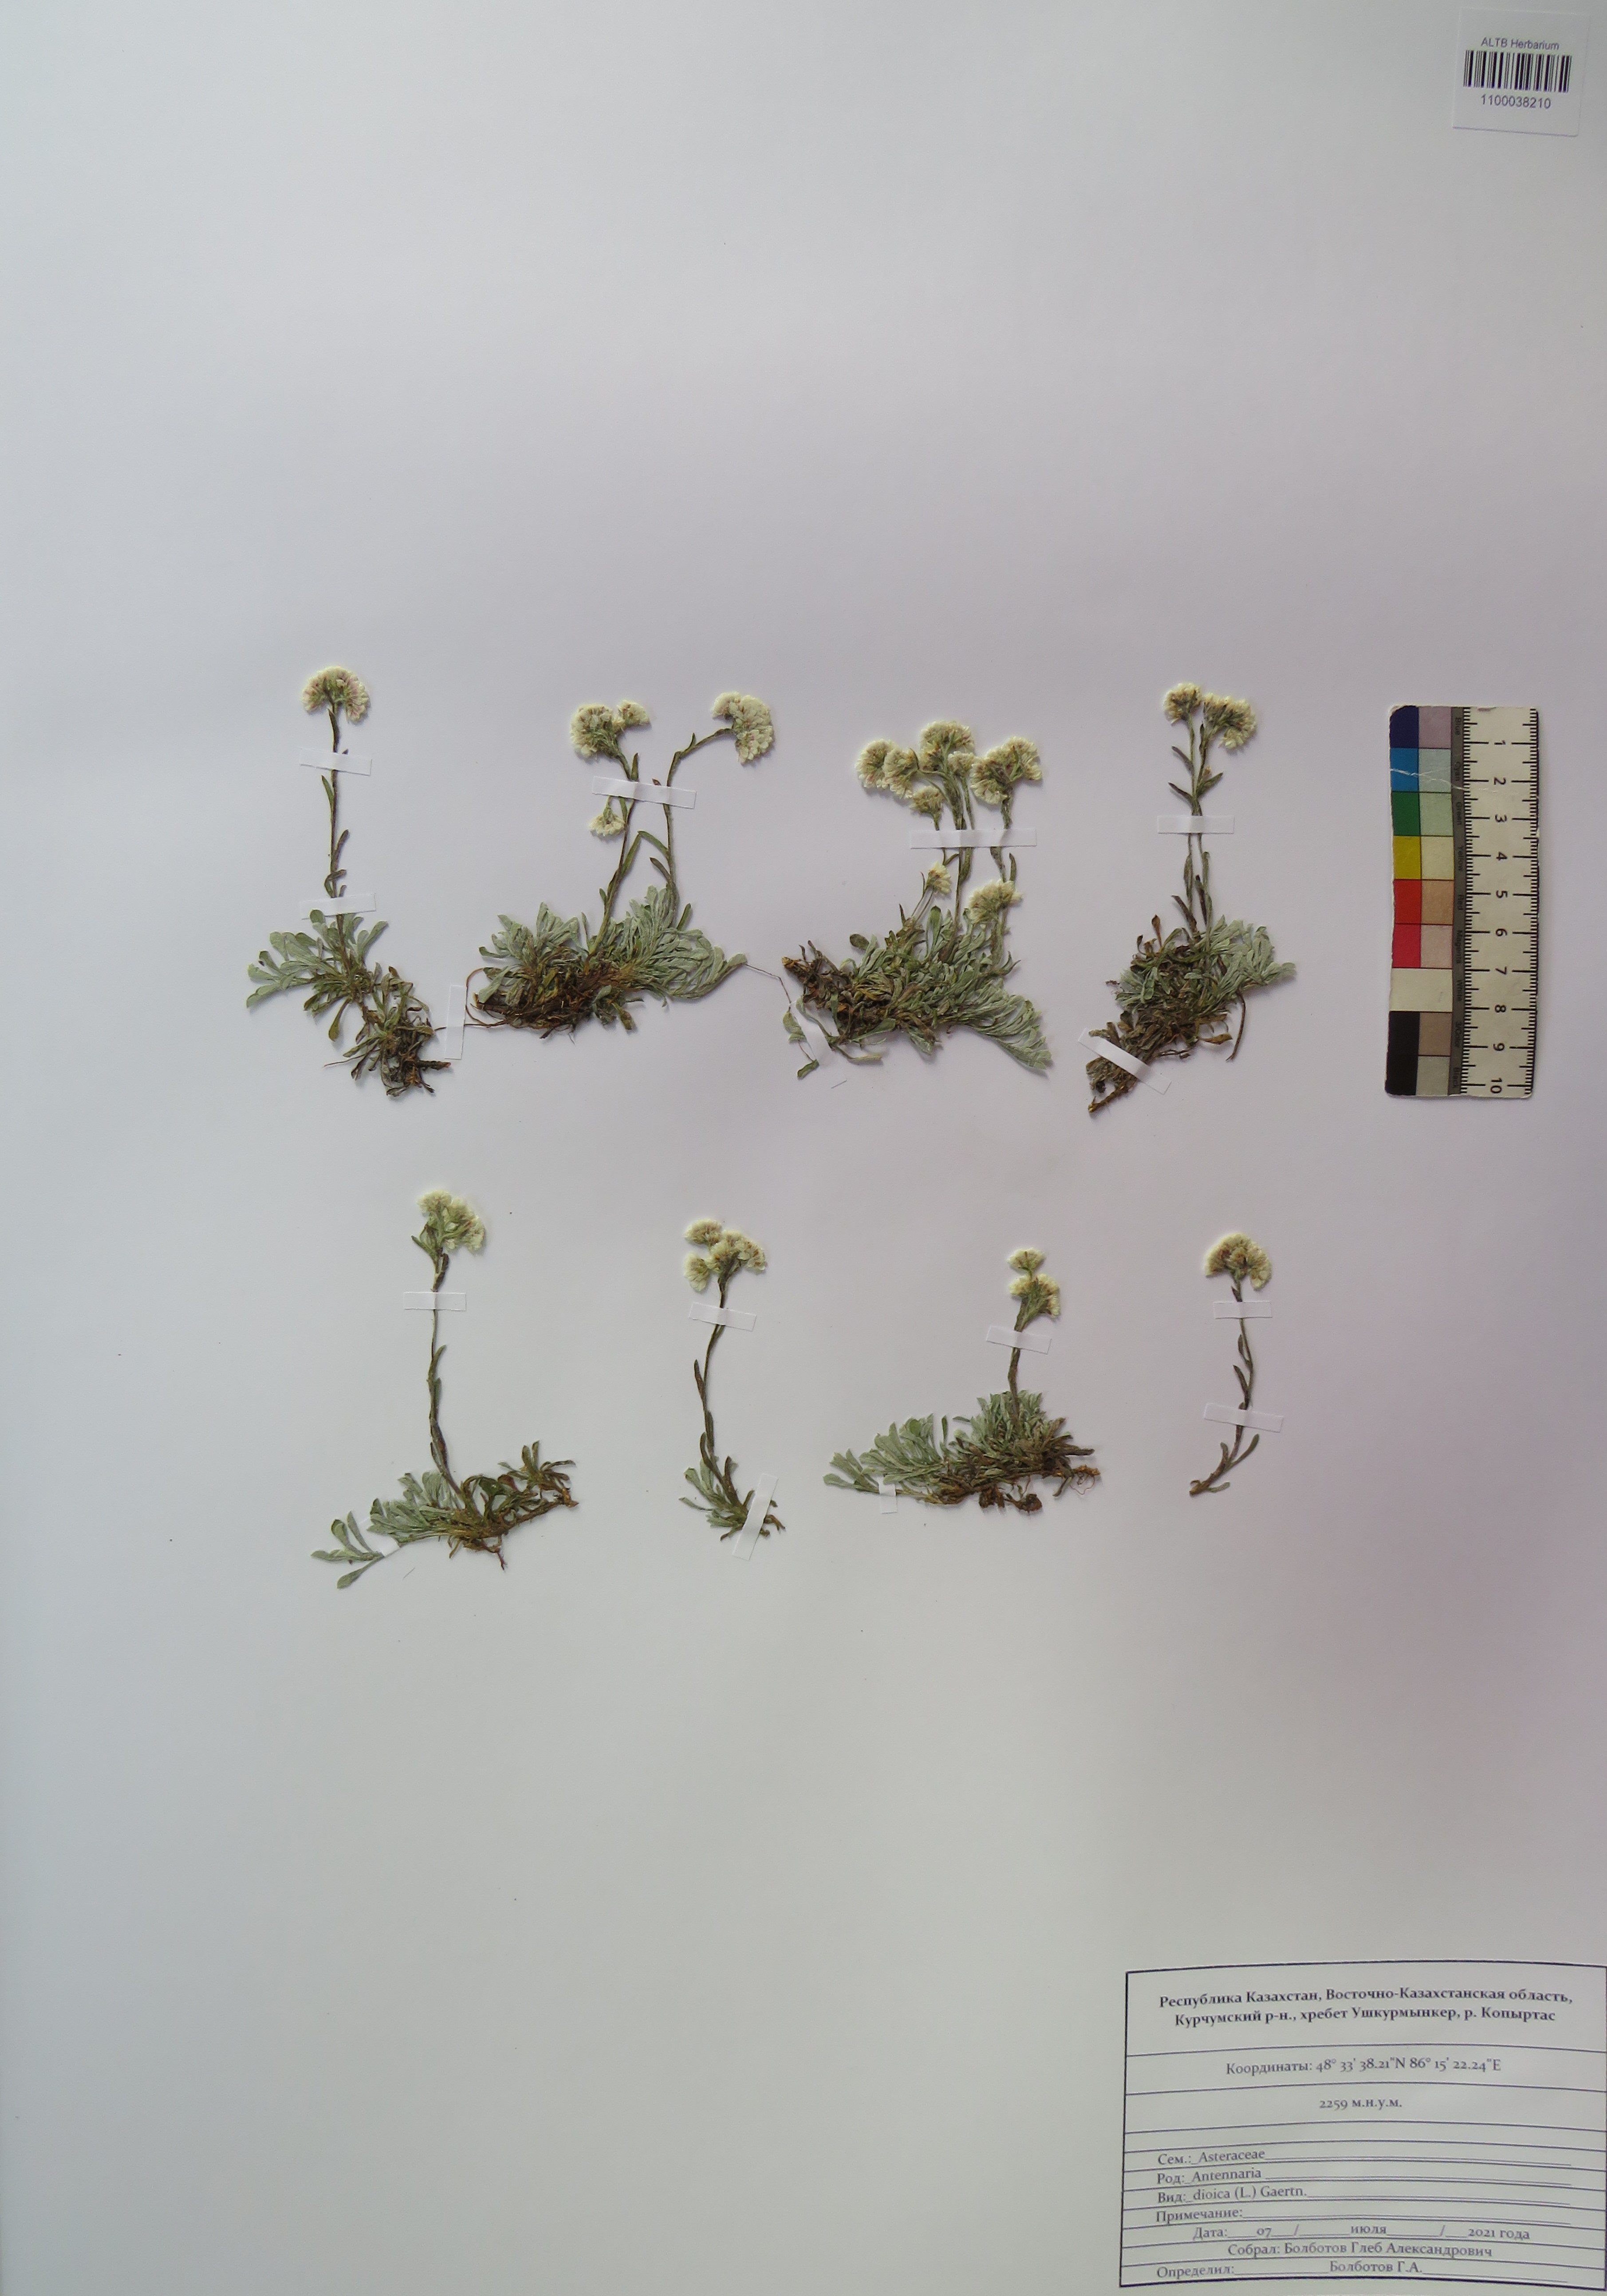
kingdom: Plantae
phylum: Tracheophyta
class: Magnoliopsida
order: Asterales
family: Asteraceae
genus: Antennaria
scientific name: Antennaria dioica
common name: Mountain everlasting
